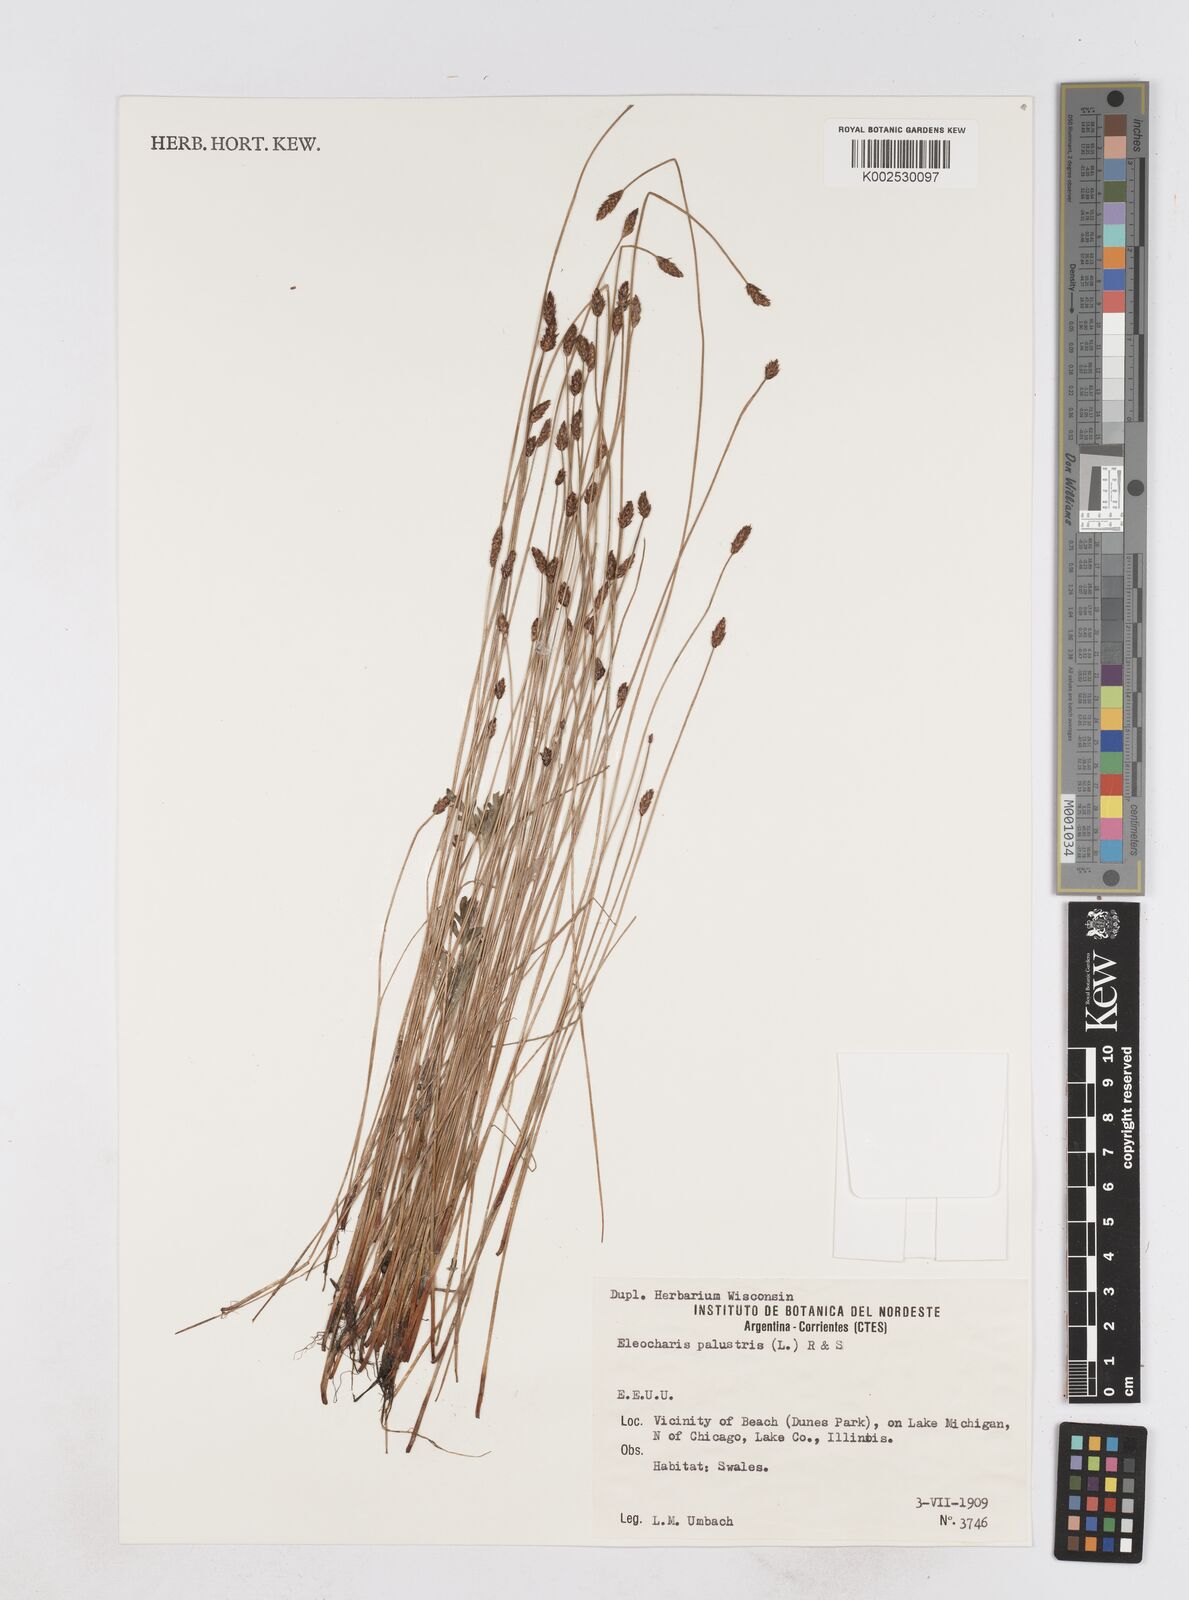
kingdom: Plantae
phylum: Tracheophyta
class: Liliopsida
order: Poales
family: Cyperaceae
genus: Eleocharis
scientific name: Eleocharis palustris
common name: Common spike-rush
